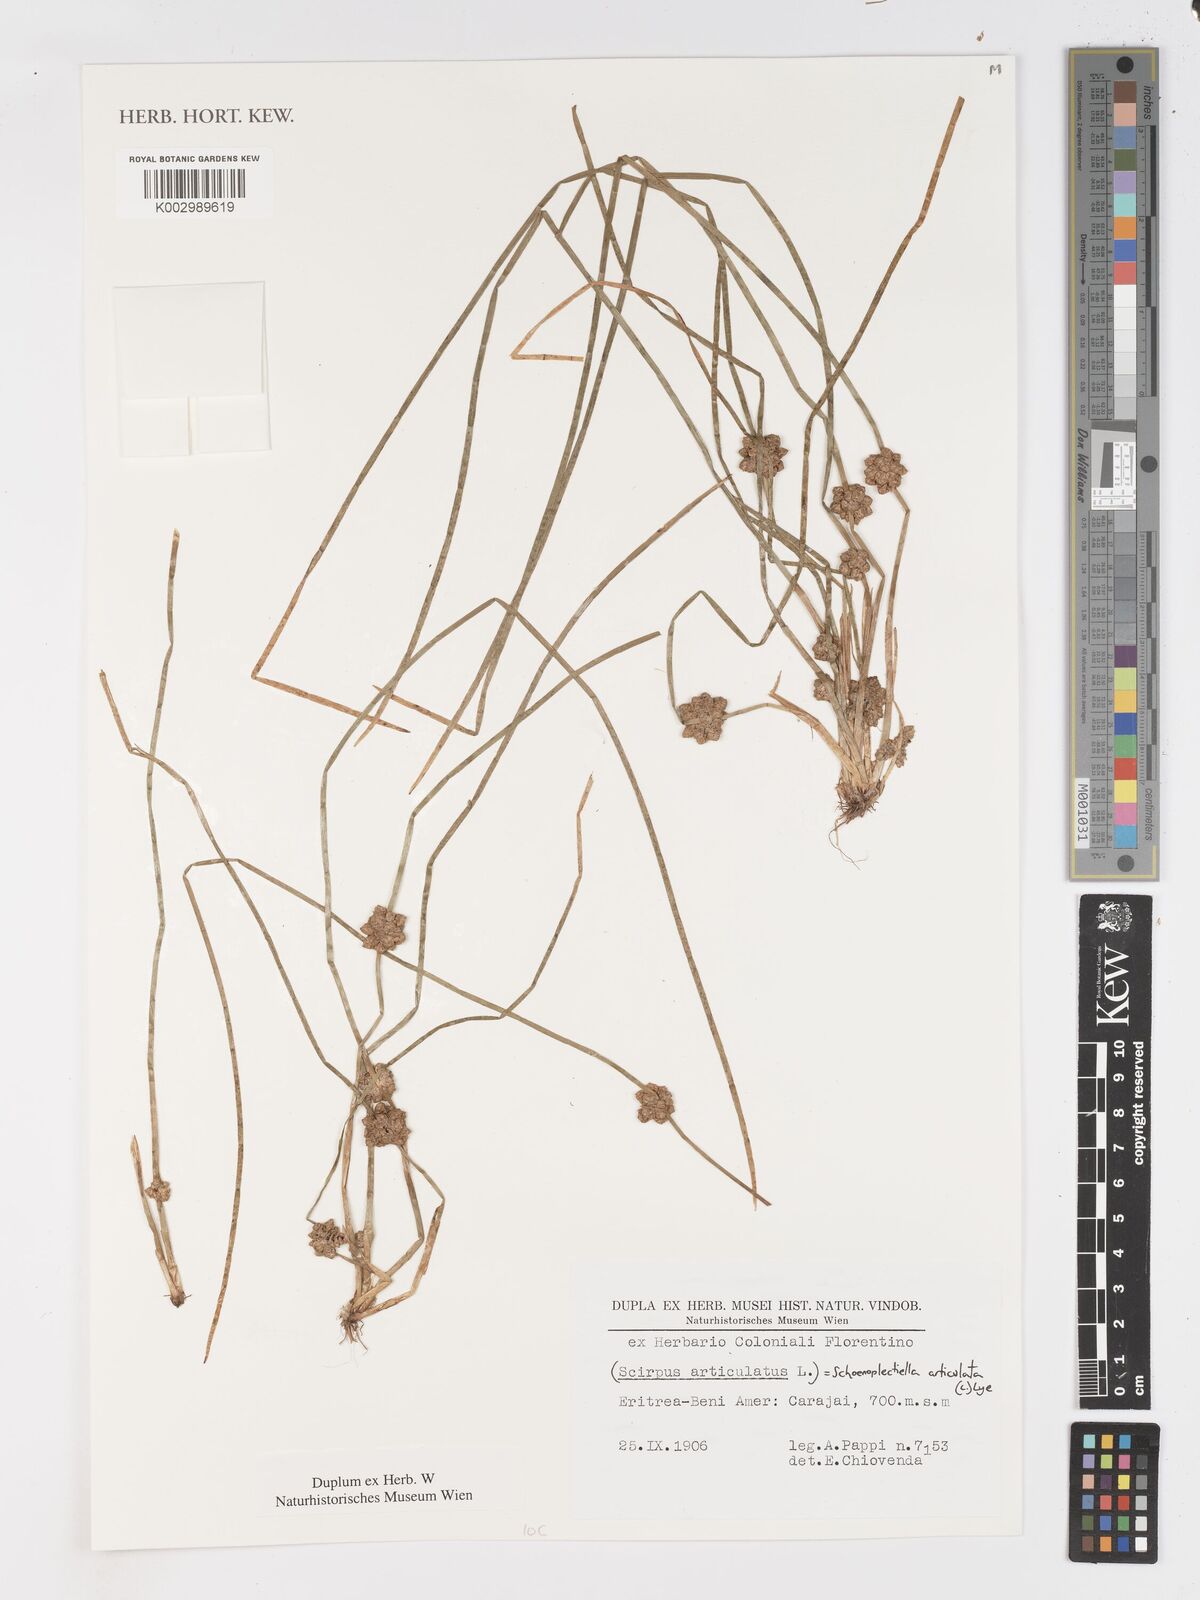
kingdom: Plantae
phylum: Tracheophyta
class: Liliopsida
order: Poales
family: Cyperaceae
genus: Schoenoplectiella
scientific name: Schoenoplectiella articulata
